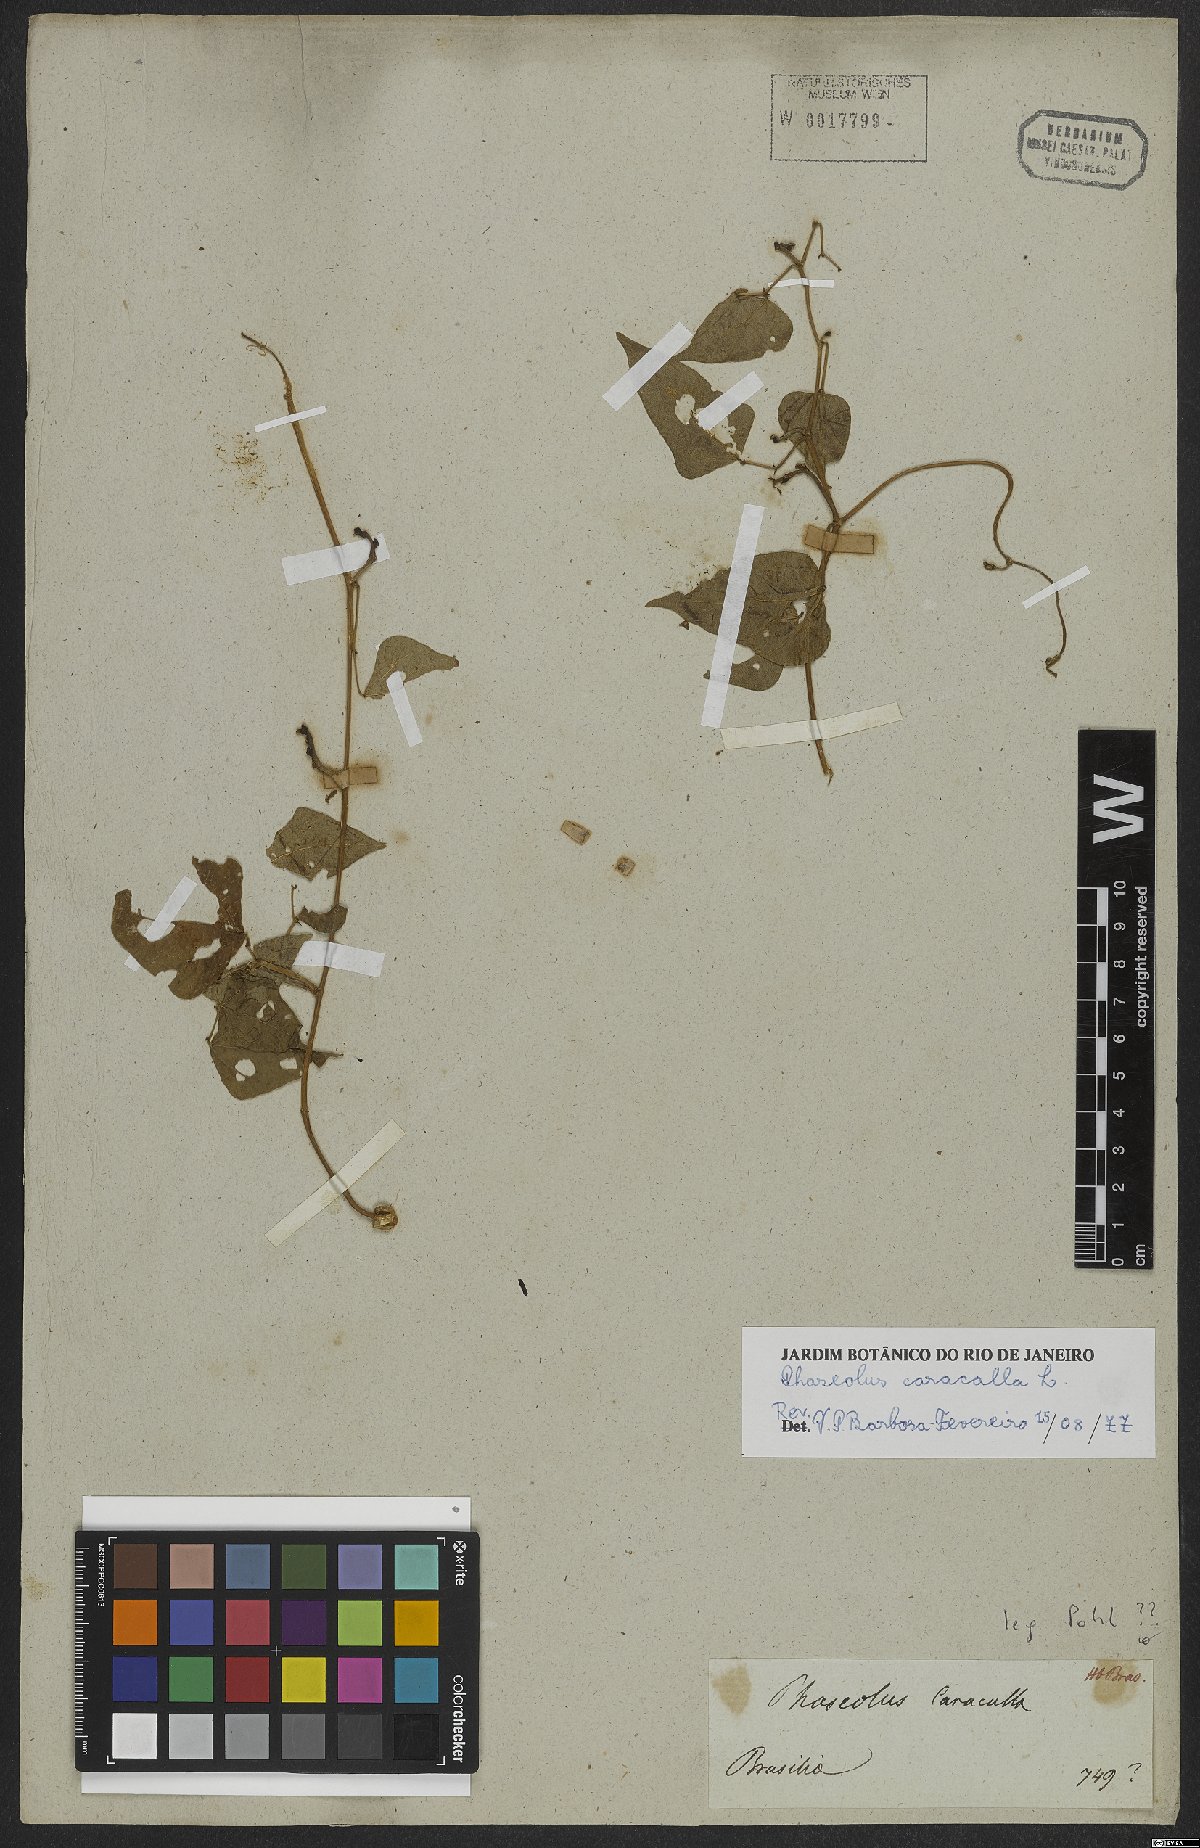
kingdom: Plantae
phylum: Tracheophyta
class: Magnoliopsida
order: Fabales
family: Fabaceae
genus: Cochliasanthus
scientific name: Cochliasanthus caracalla
